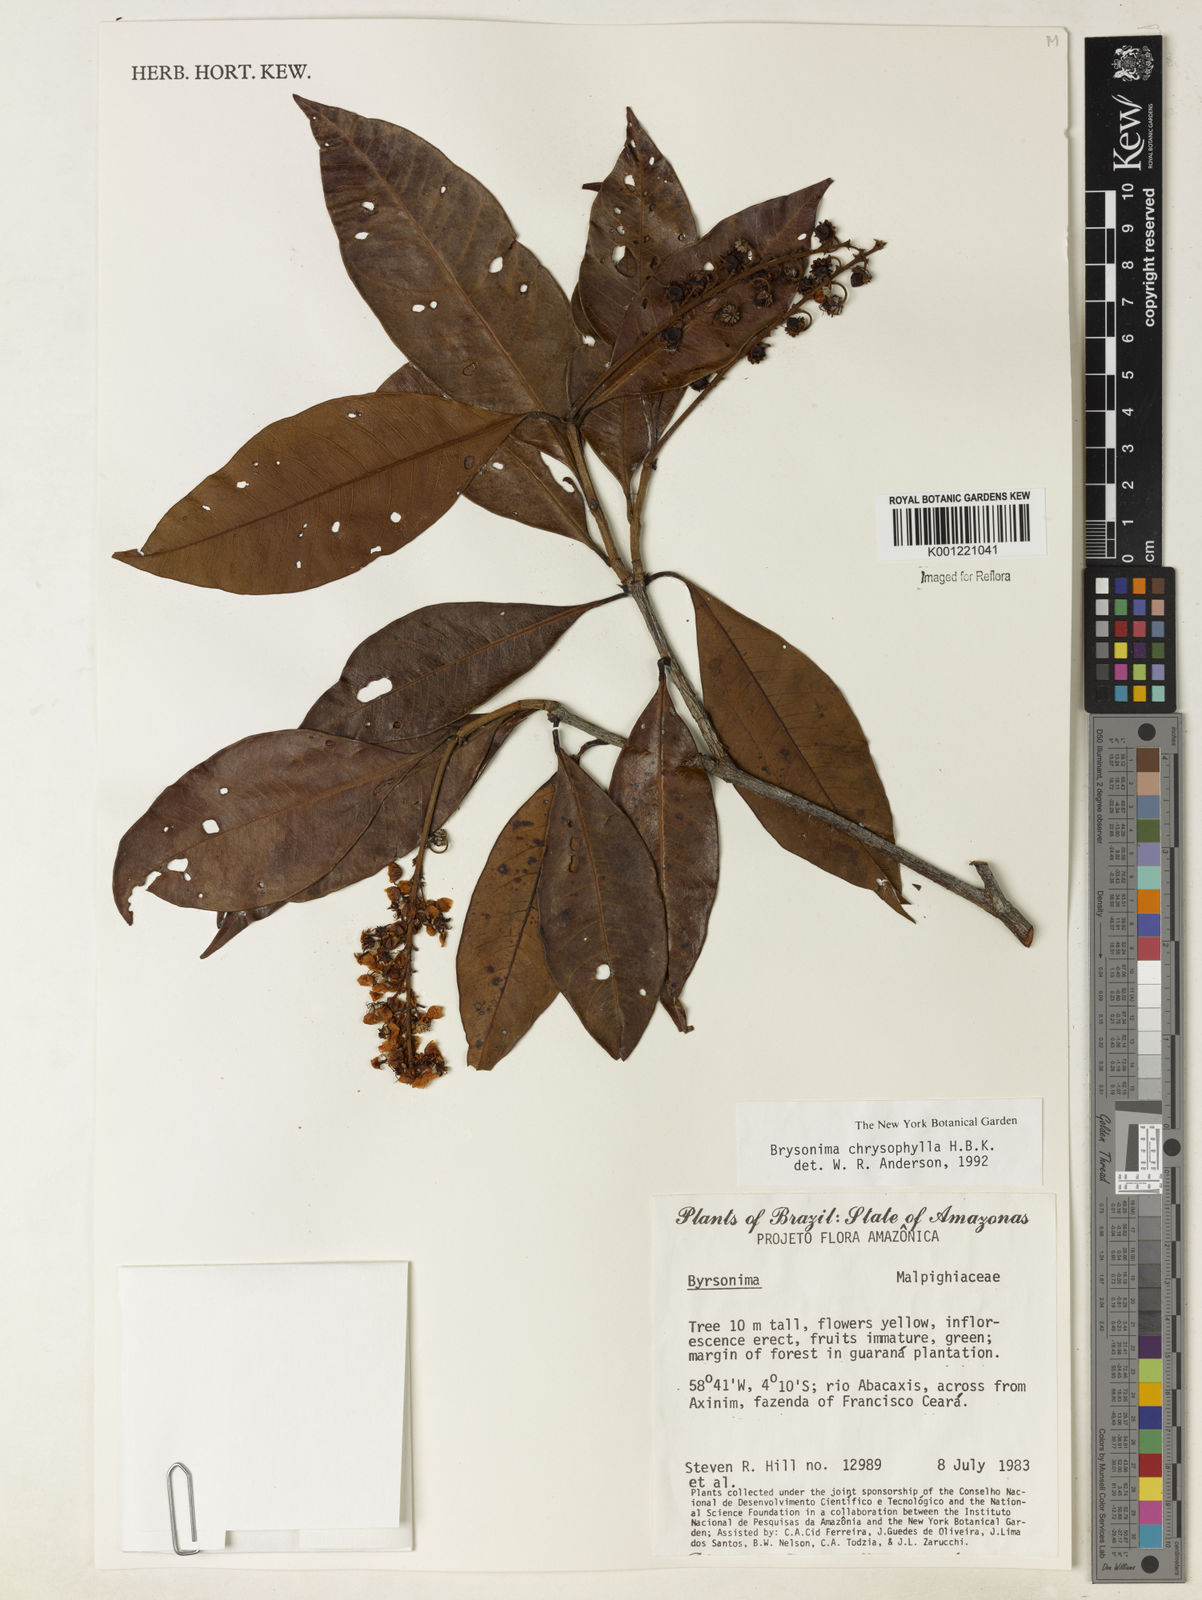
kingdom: Plantae
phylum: Tracheophyta
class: Magnoliopsida
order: Malpighiales
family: Malpighiaceae
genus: Byrsonima
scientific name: Byrsonima chrysophylla
